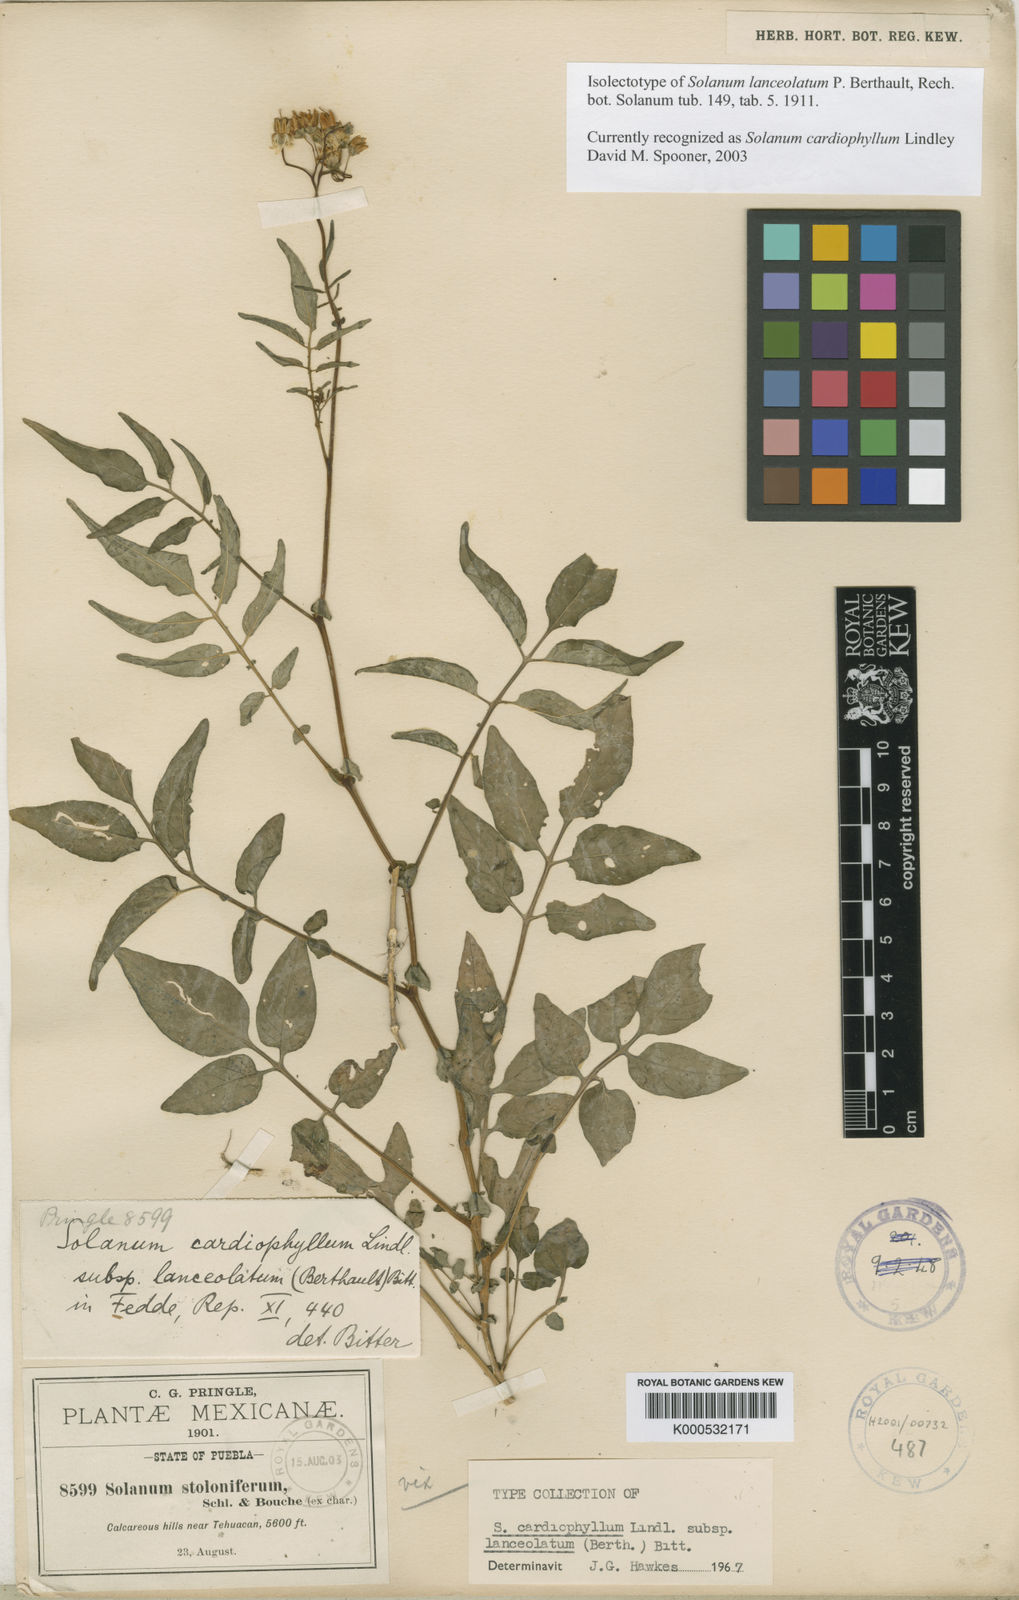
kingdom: Plantae
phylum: Tracheophyta
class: Magnoliopsida
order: Solanales
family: Solanaceae
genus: Solanum
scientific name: Solanum cardiophyllum
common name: Heartleaf horsenettle
